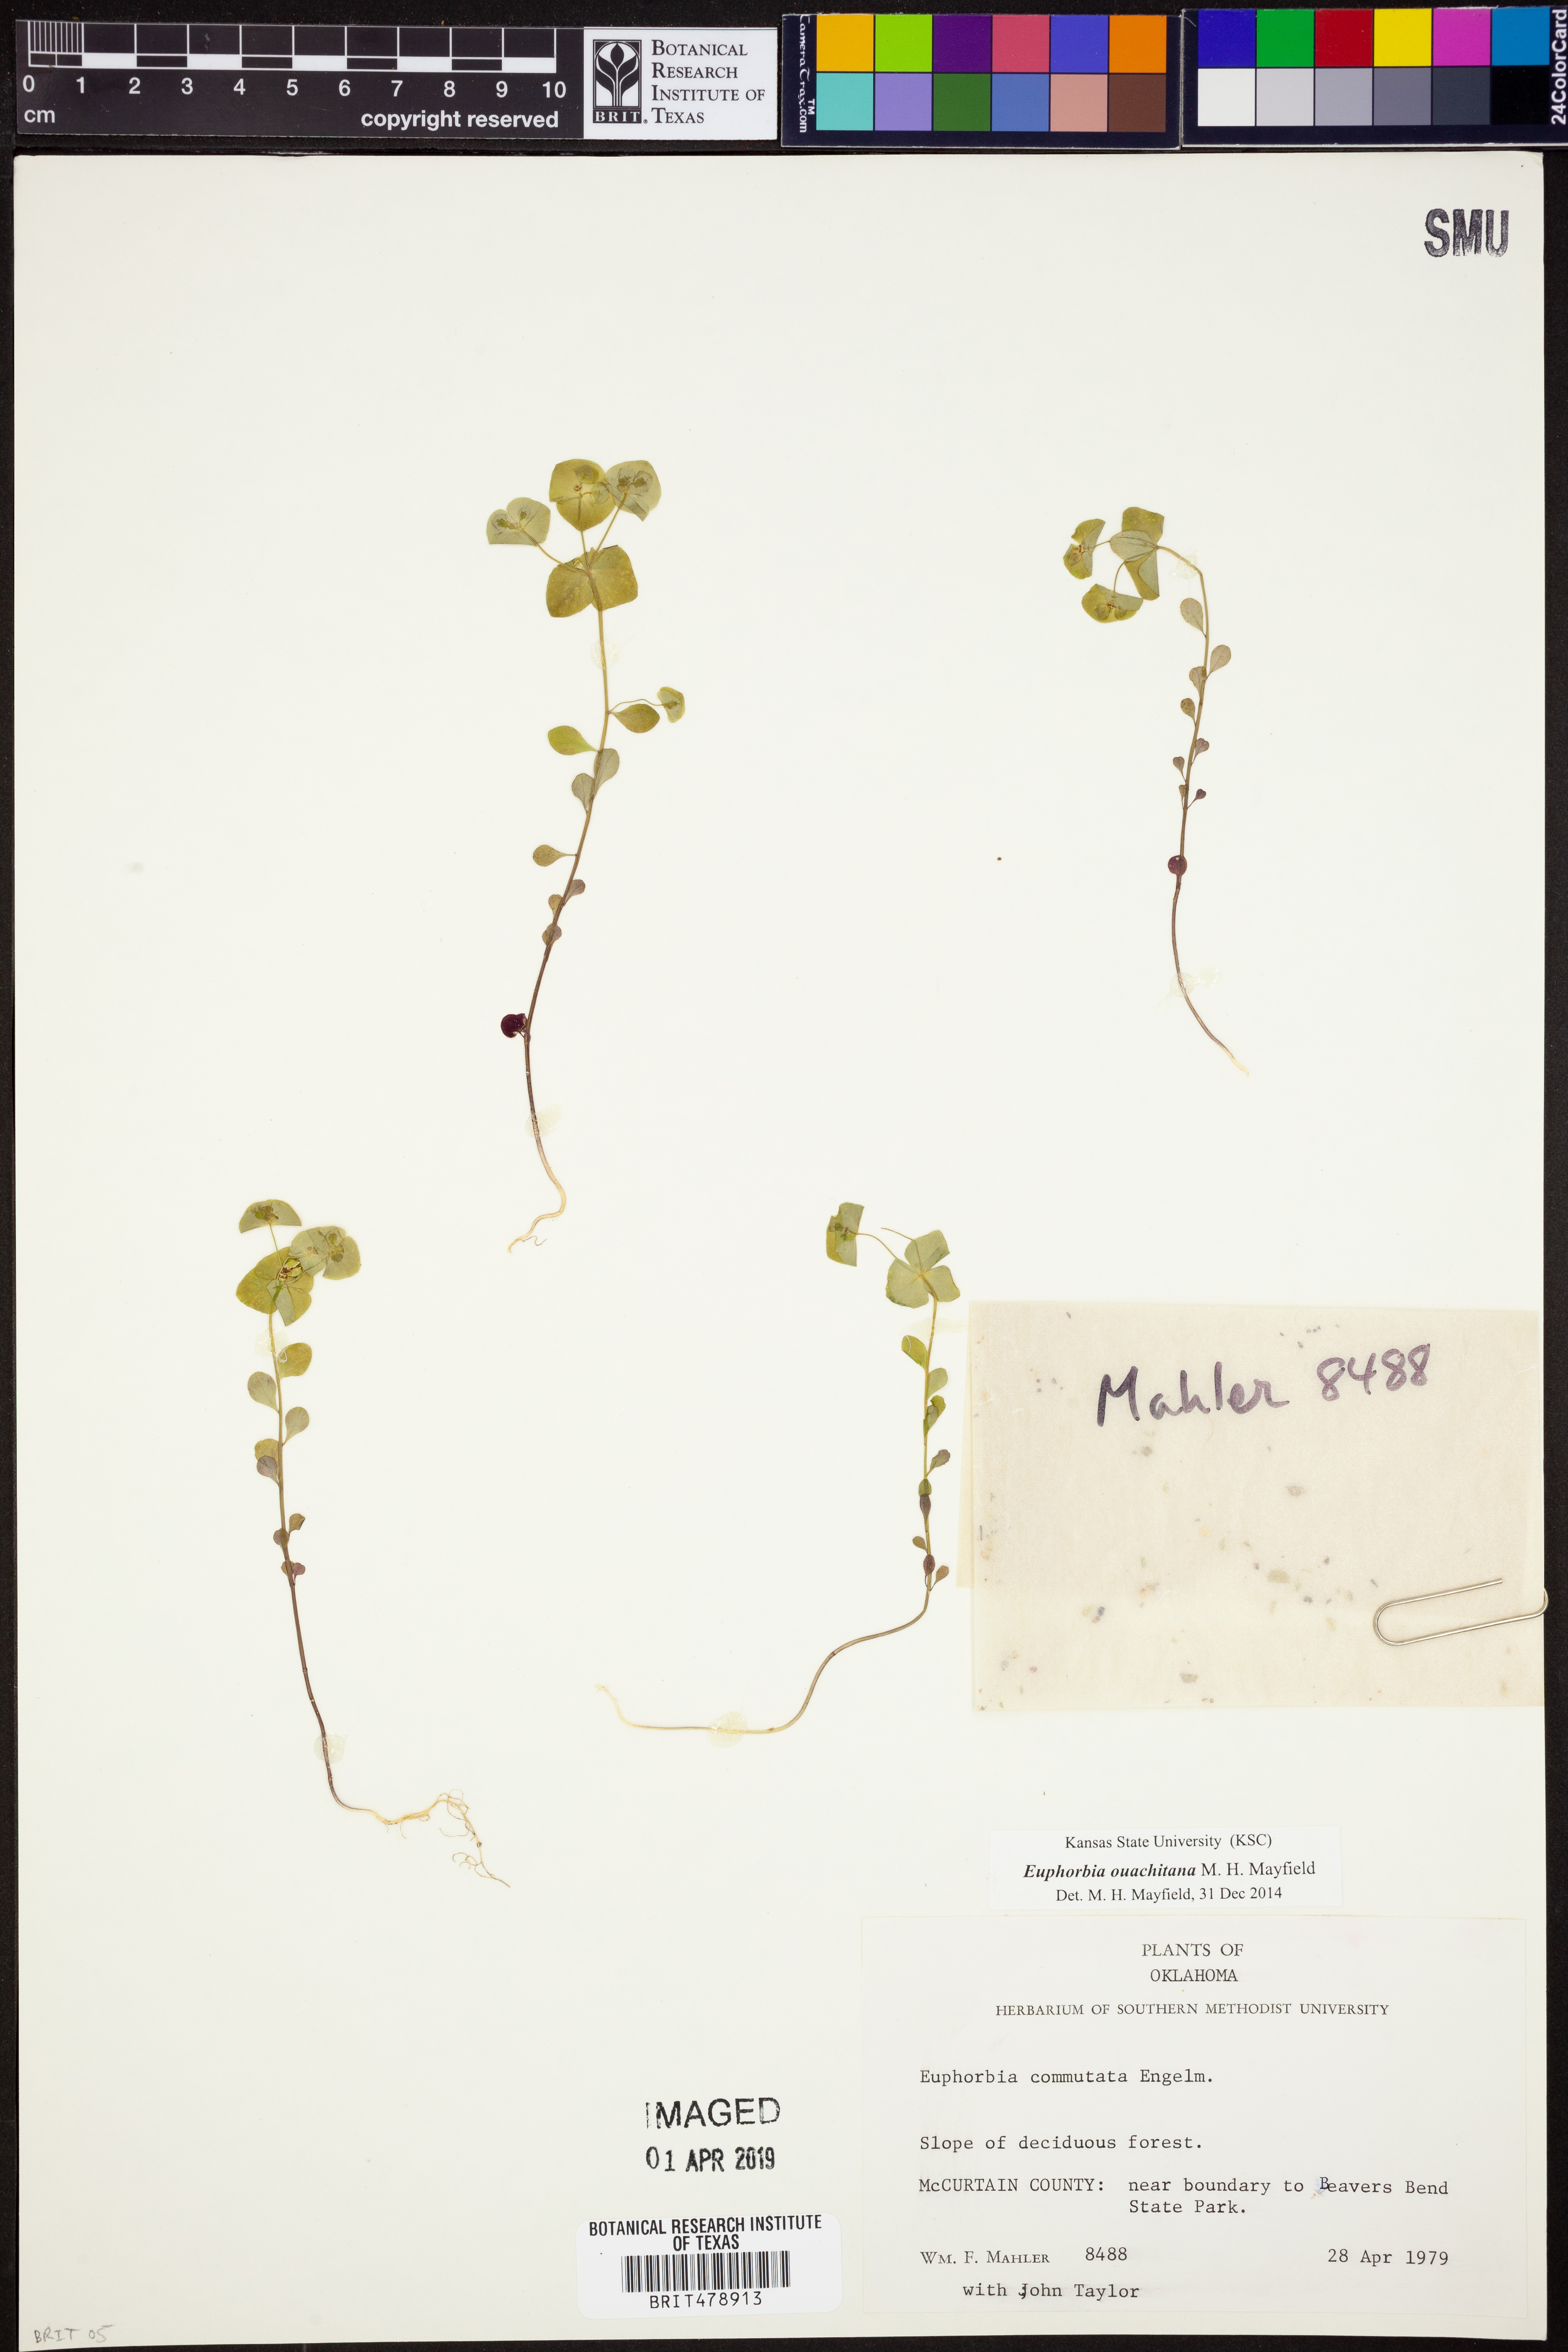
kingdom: Plantae
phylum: Tracheophyta
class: Magnoliopsida
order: Malpighiales
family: Euphorbiaceae
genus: Euphorbia
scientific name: Euphorbia ouachitana
